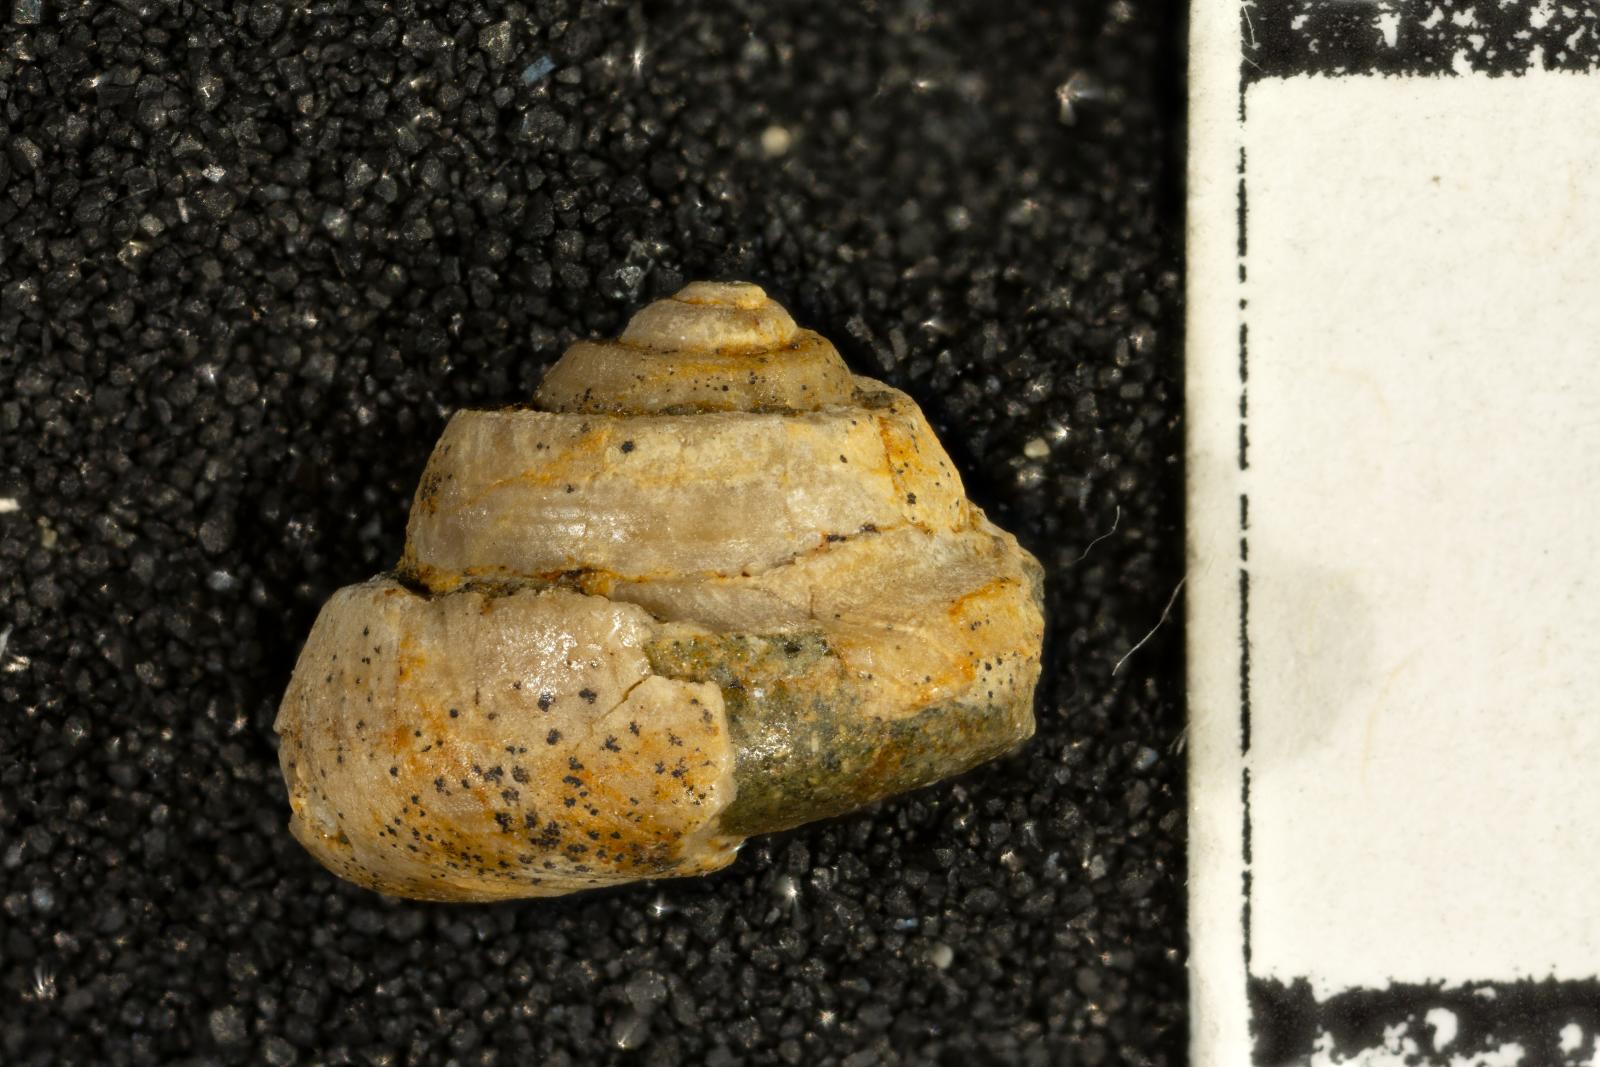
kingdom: Animalia
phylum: Mollusca
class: Bivalvia
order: Ostreida
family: Pteriidae
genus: Atira
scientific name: Atira Angaria ornatissima
